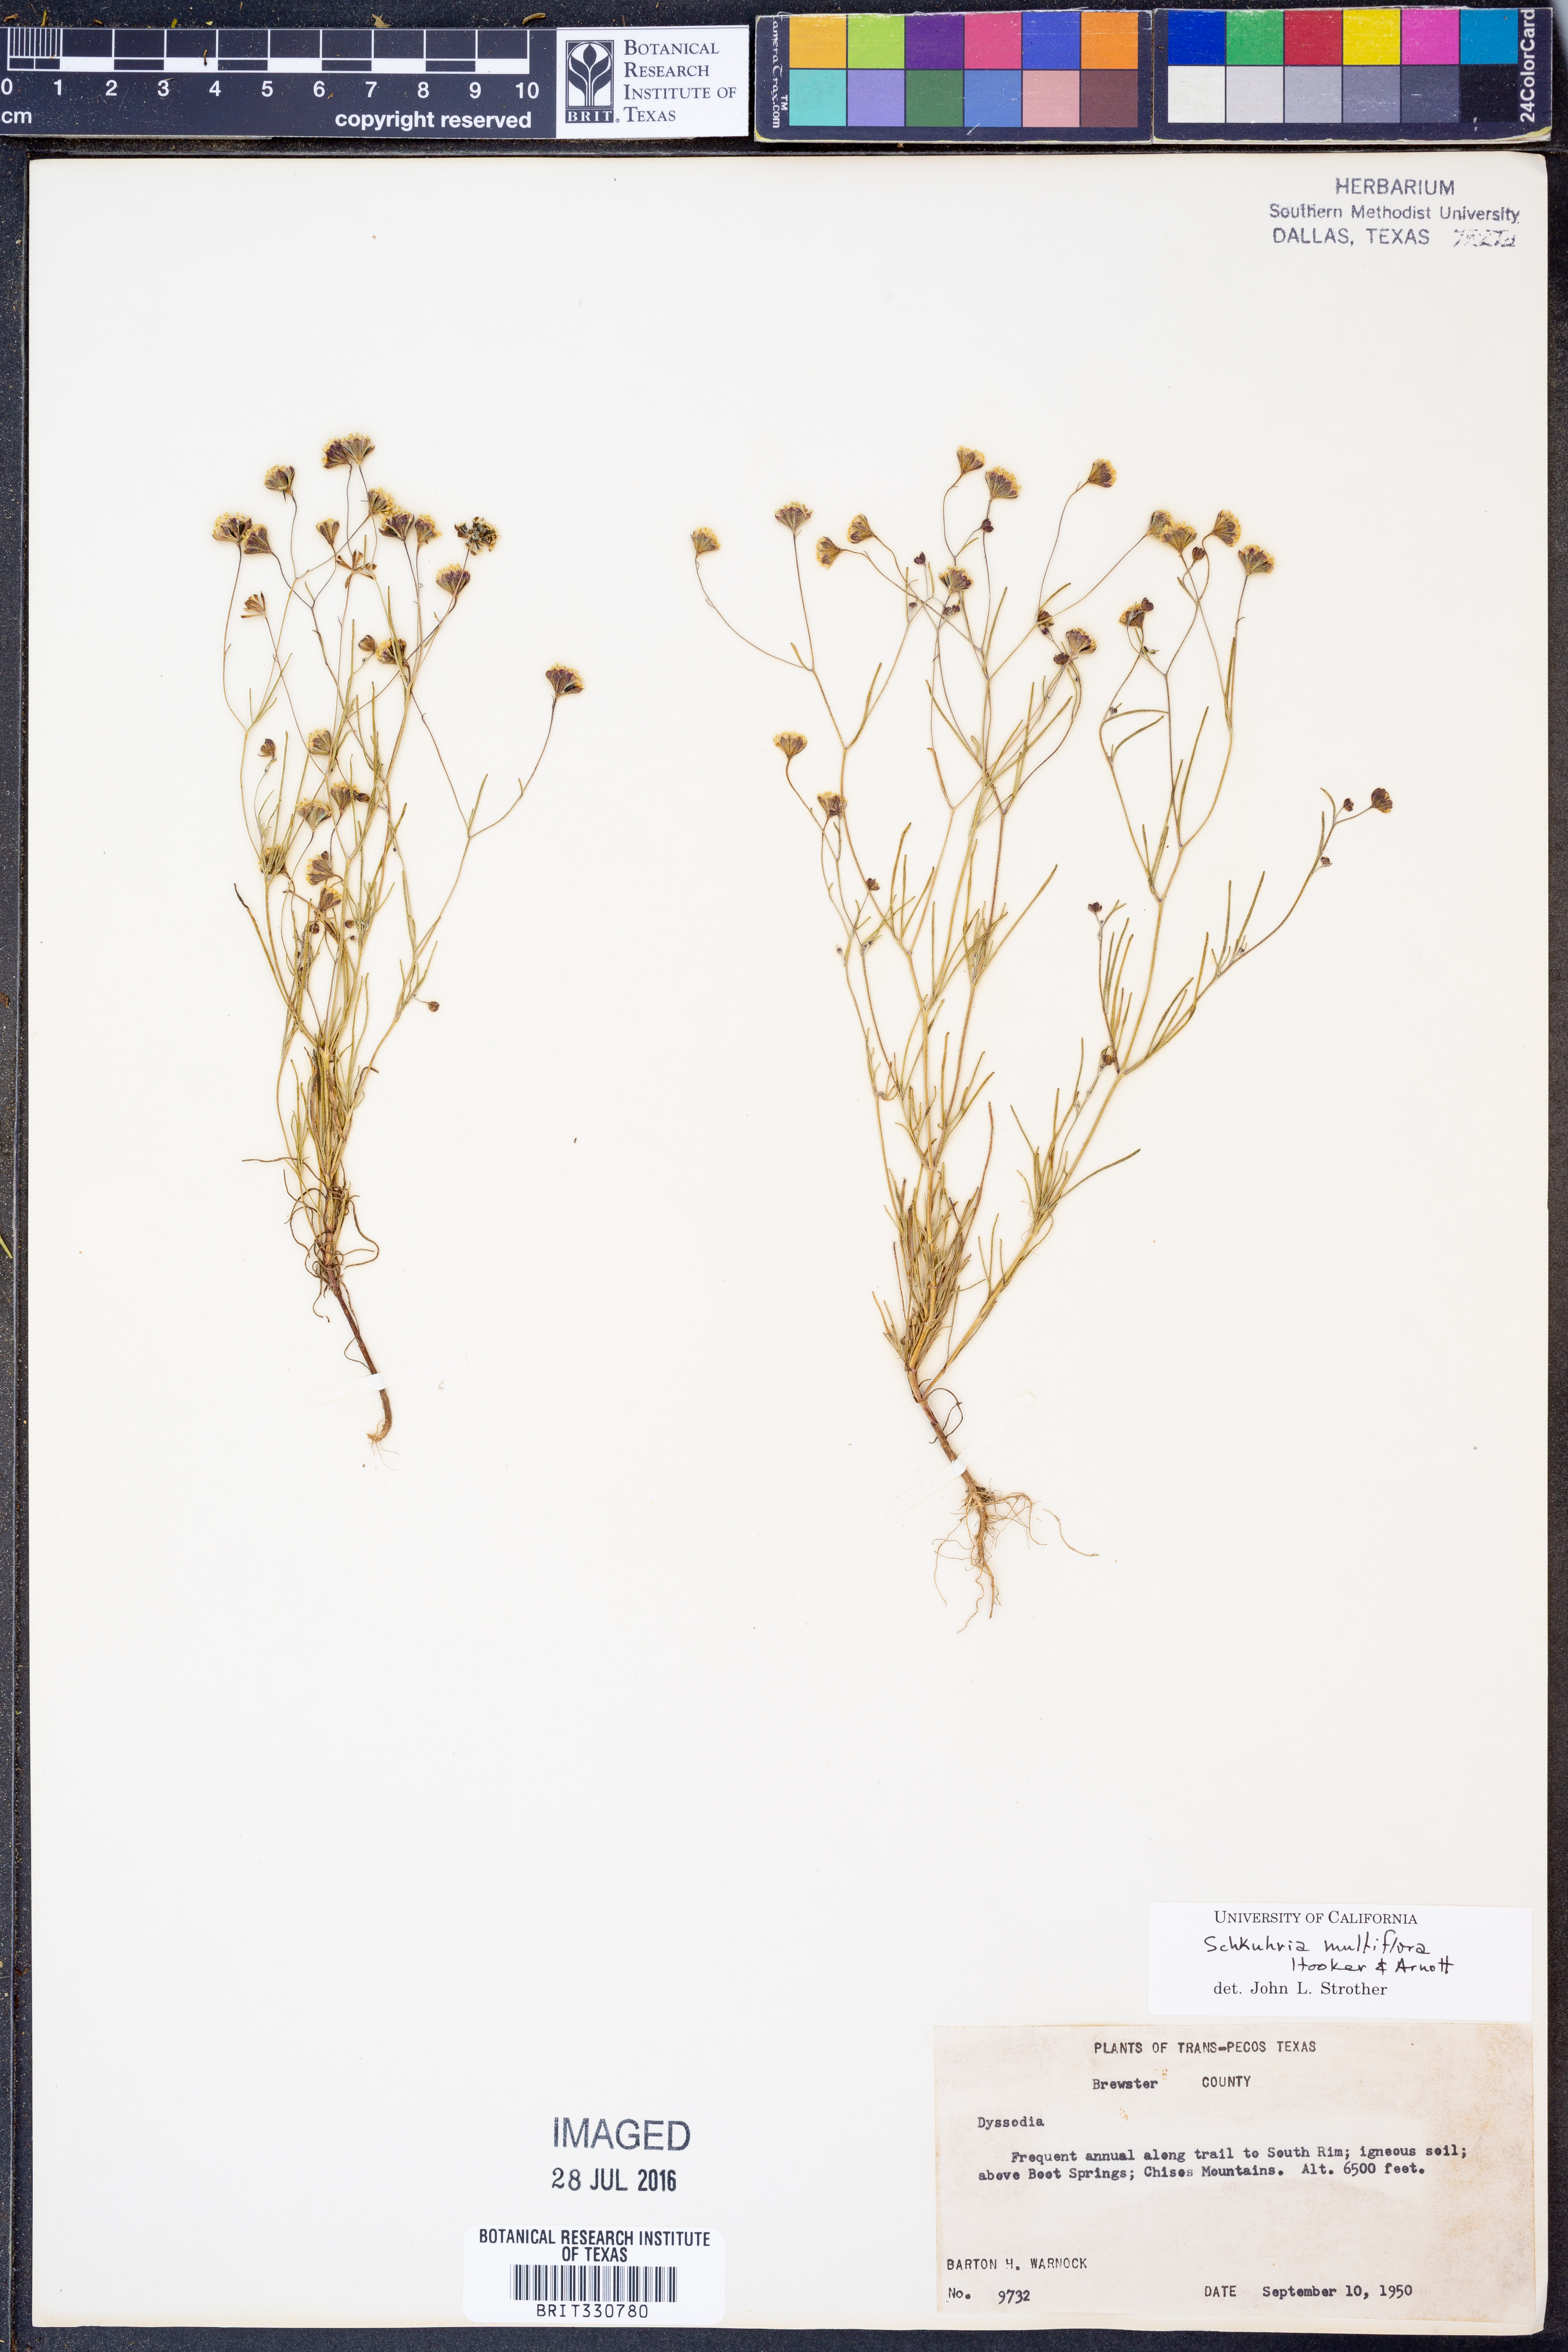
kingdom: Plantae
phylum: Tracheophyta
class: Magnoliopsida
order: Asterales
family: Asteraceae
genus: Picradeniopsis
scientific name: Picradeniopsis multiflora
